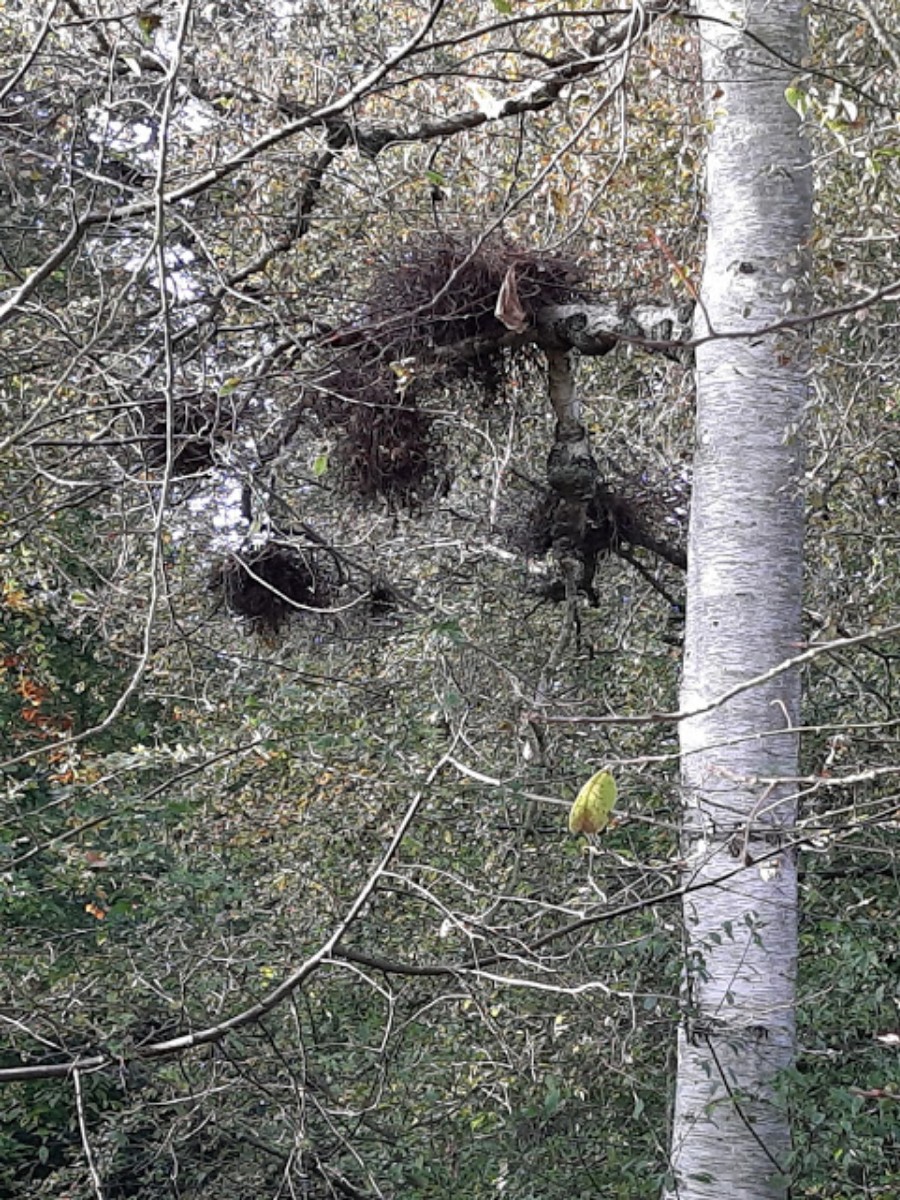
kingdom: Fungi
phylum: Ascomycota
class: Taphrinomycetes
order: Taphrinales
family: Taphrinaceae
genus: Taphrina
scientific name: Taphrina betulina
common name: hekse-sækdug
